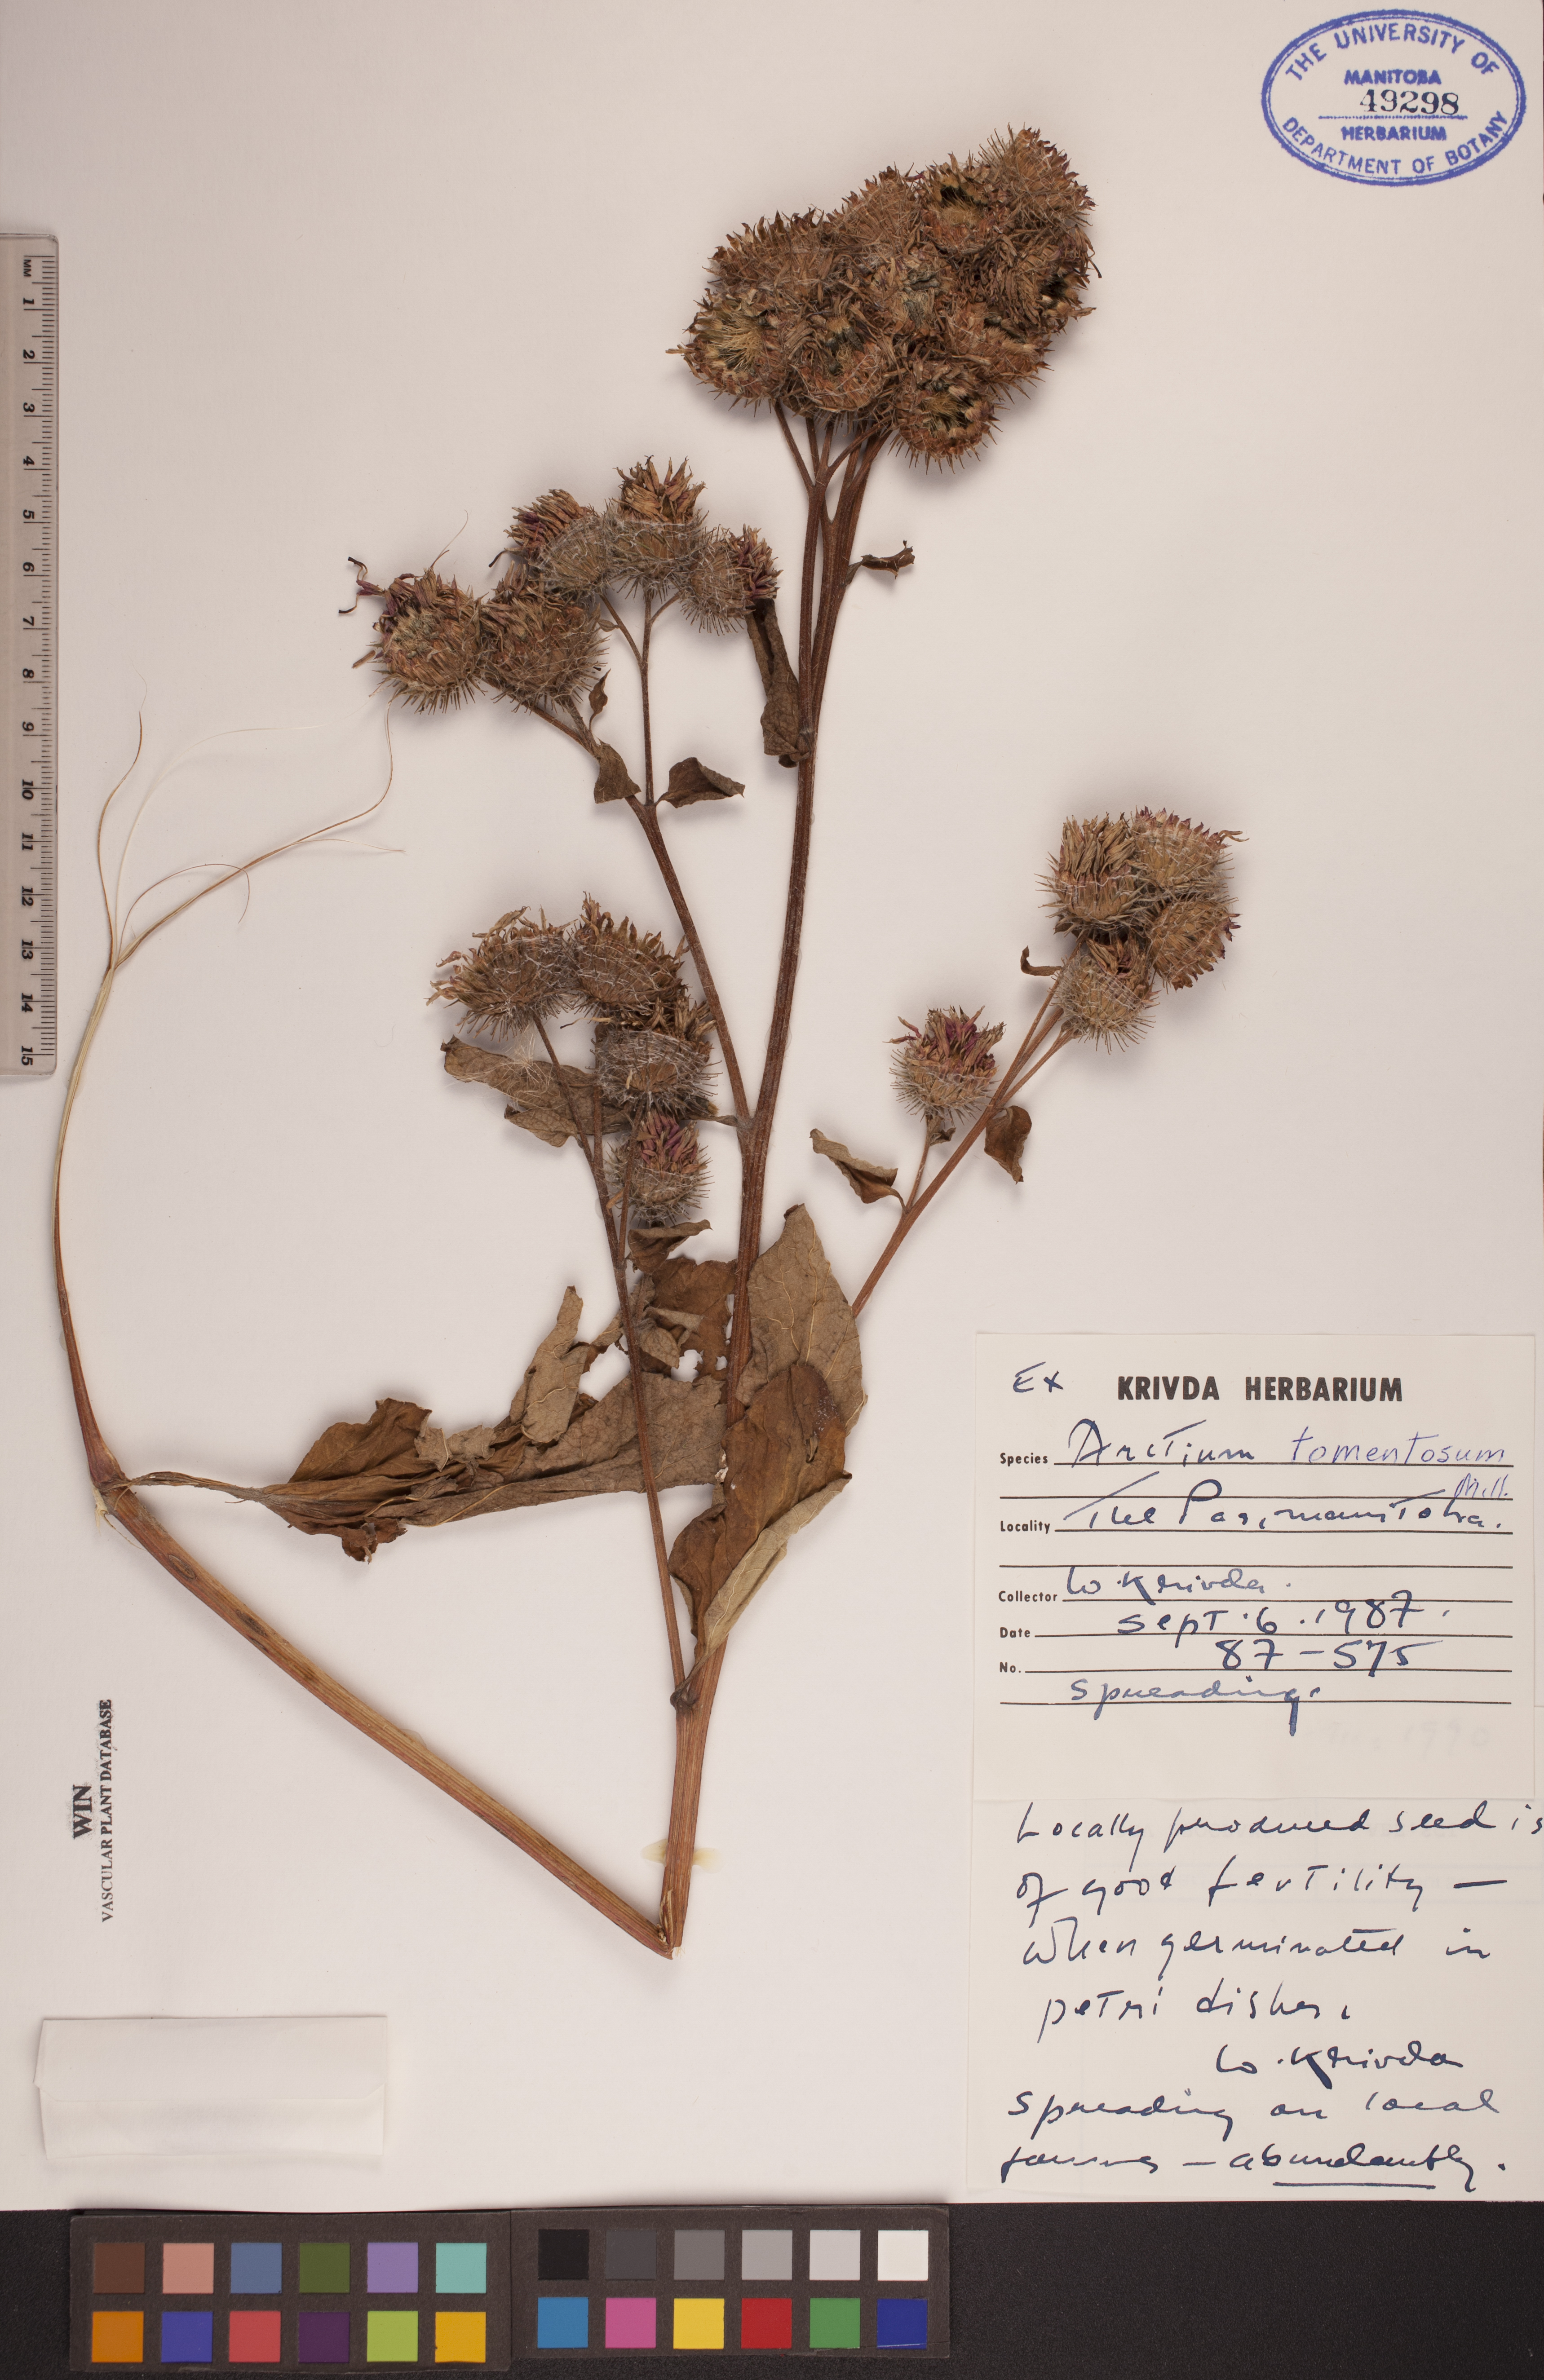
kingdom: Plantae
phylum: Tracheophyta
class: Magnoliopsida
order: Asterales
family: Asteraceae
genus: Arctium
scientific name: Arctium tomentosum
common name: Woolly burdock
